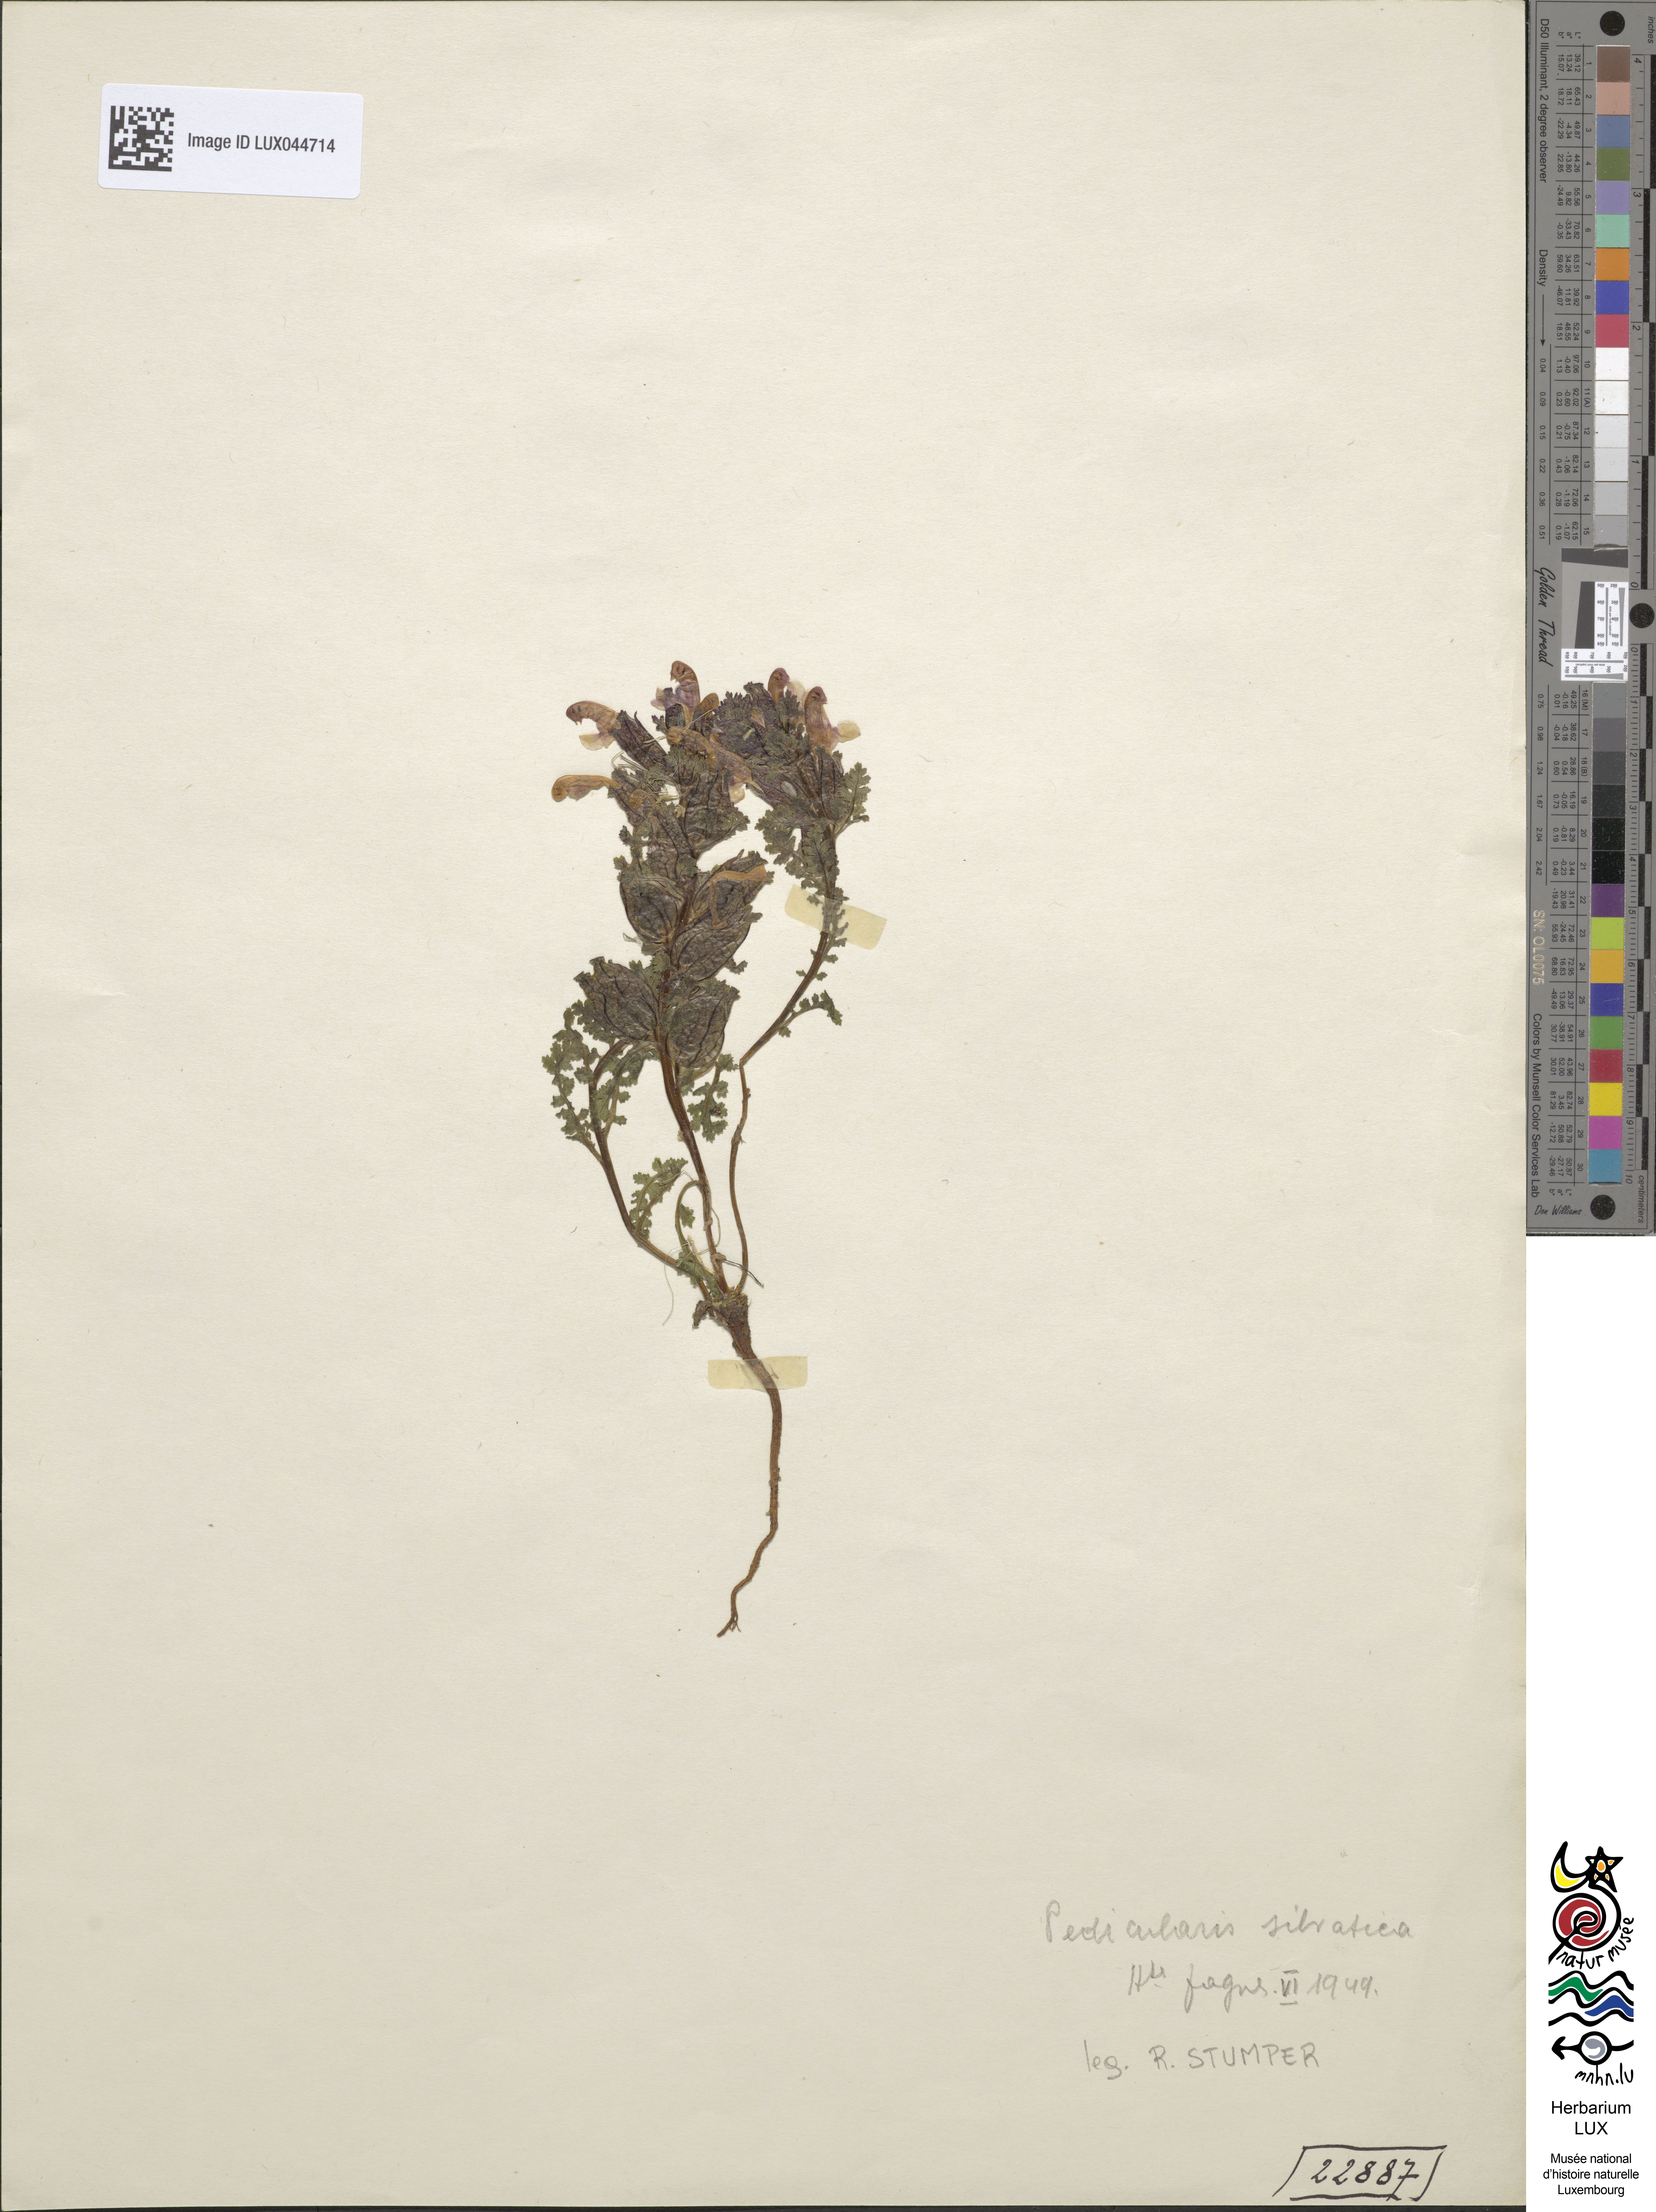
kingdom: Plantae
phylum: Tracheophyta
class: Magnoliopsida
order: Lamiales
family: Orobanchaceae
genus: Pedicularis
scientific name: Pedicularis sylvatica
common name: Lousewort
